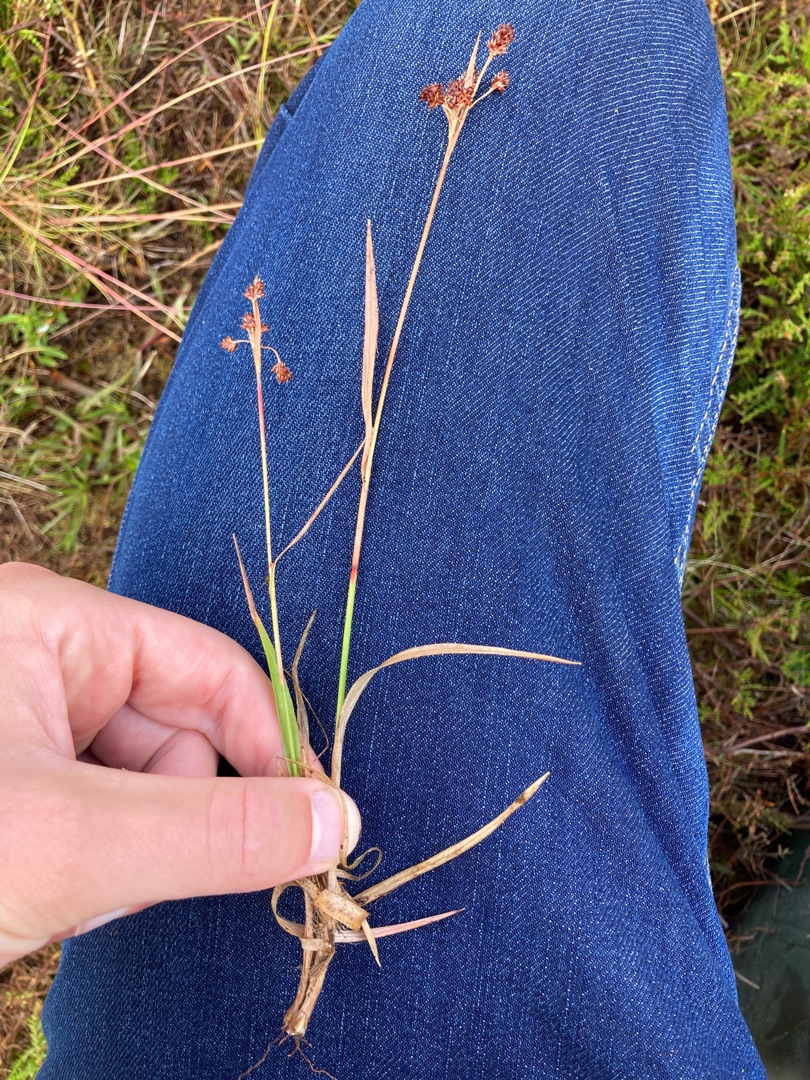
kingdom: Plantae
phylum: Tracheophyta
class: Liliopsida
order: Poales
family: Juncaceae
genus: Luzula
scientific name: Luzula multiflora
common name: Mangeblomstret frytle
